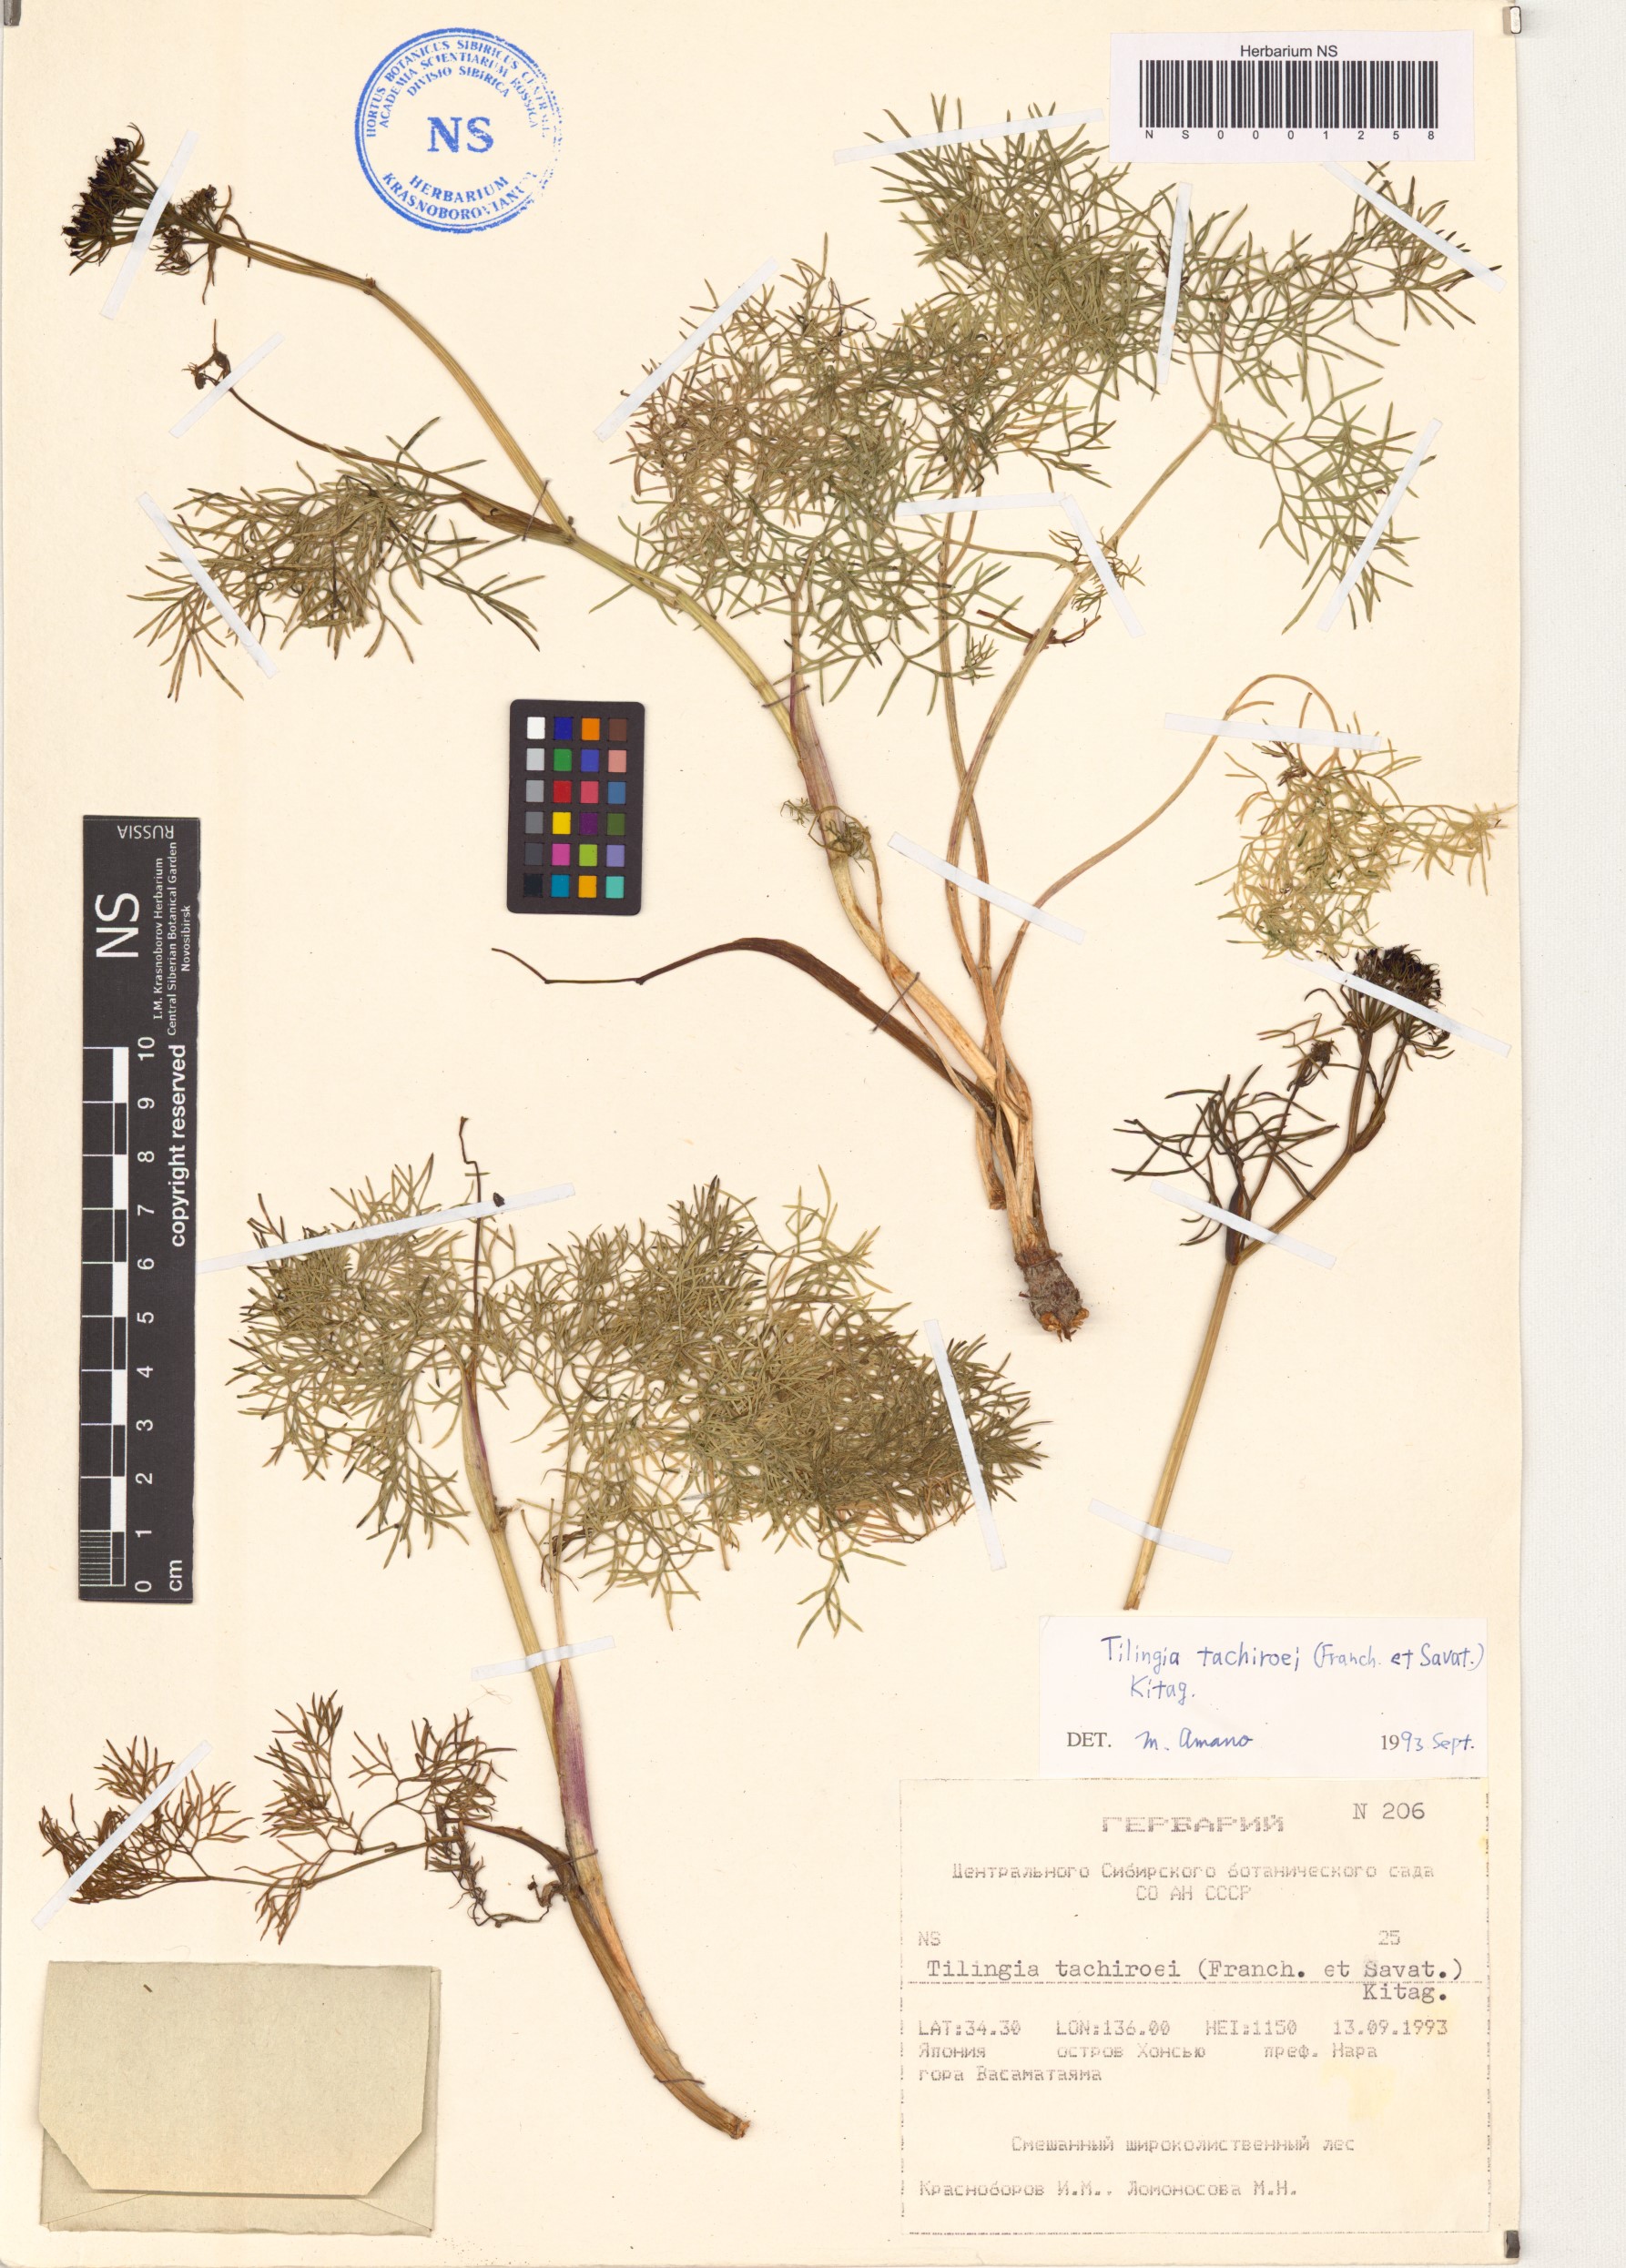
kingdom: Plantae
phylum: Tracheophyta
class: Magnoliopsida
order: Apiales
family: Apiaceae
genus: Rupiphila
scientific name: Rupiphila tachiroei
